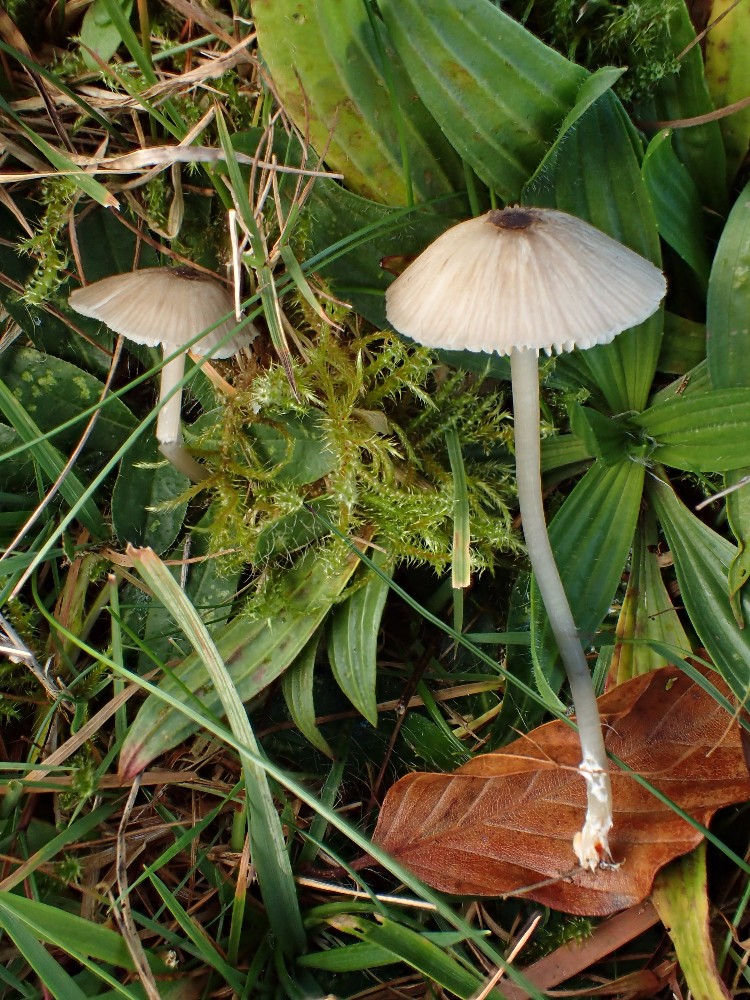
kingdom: Fungi
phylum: Basidiomycota
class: Agaricomycetes
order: Agaricales
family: Entolomataceae
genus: Entoloma
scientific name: Entoloma exile
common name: rødplettet rødblad
